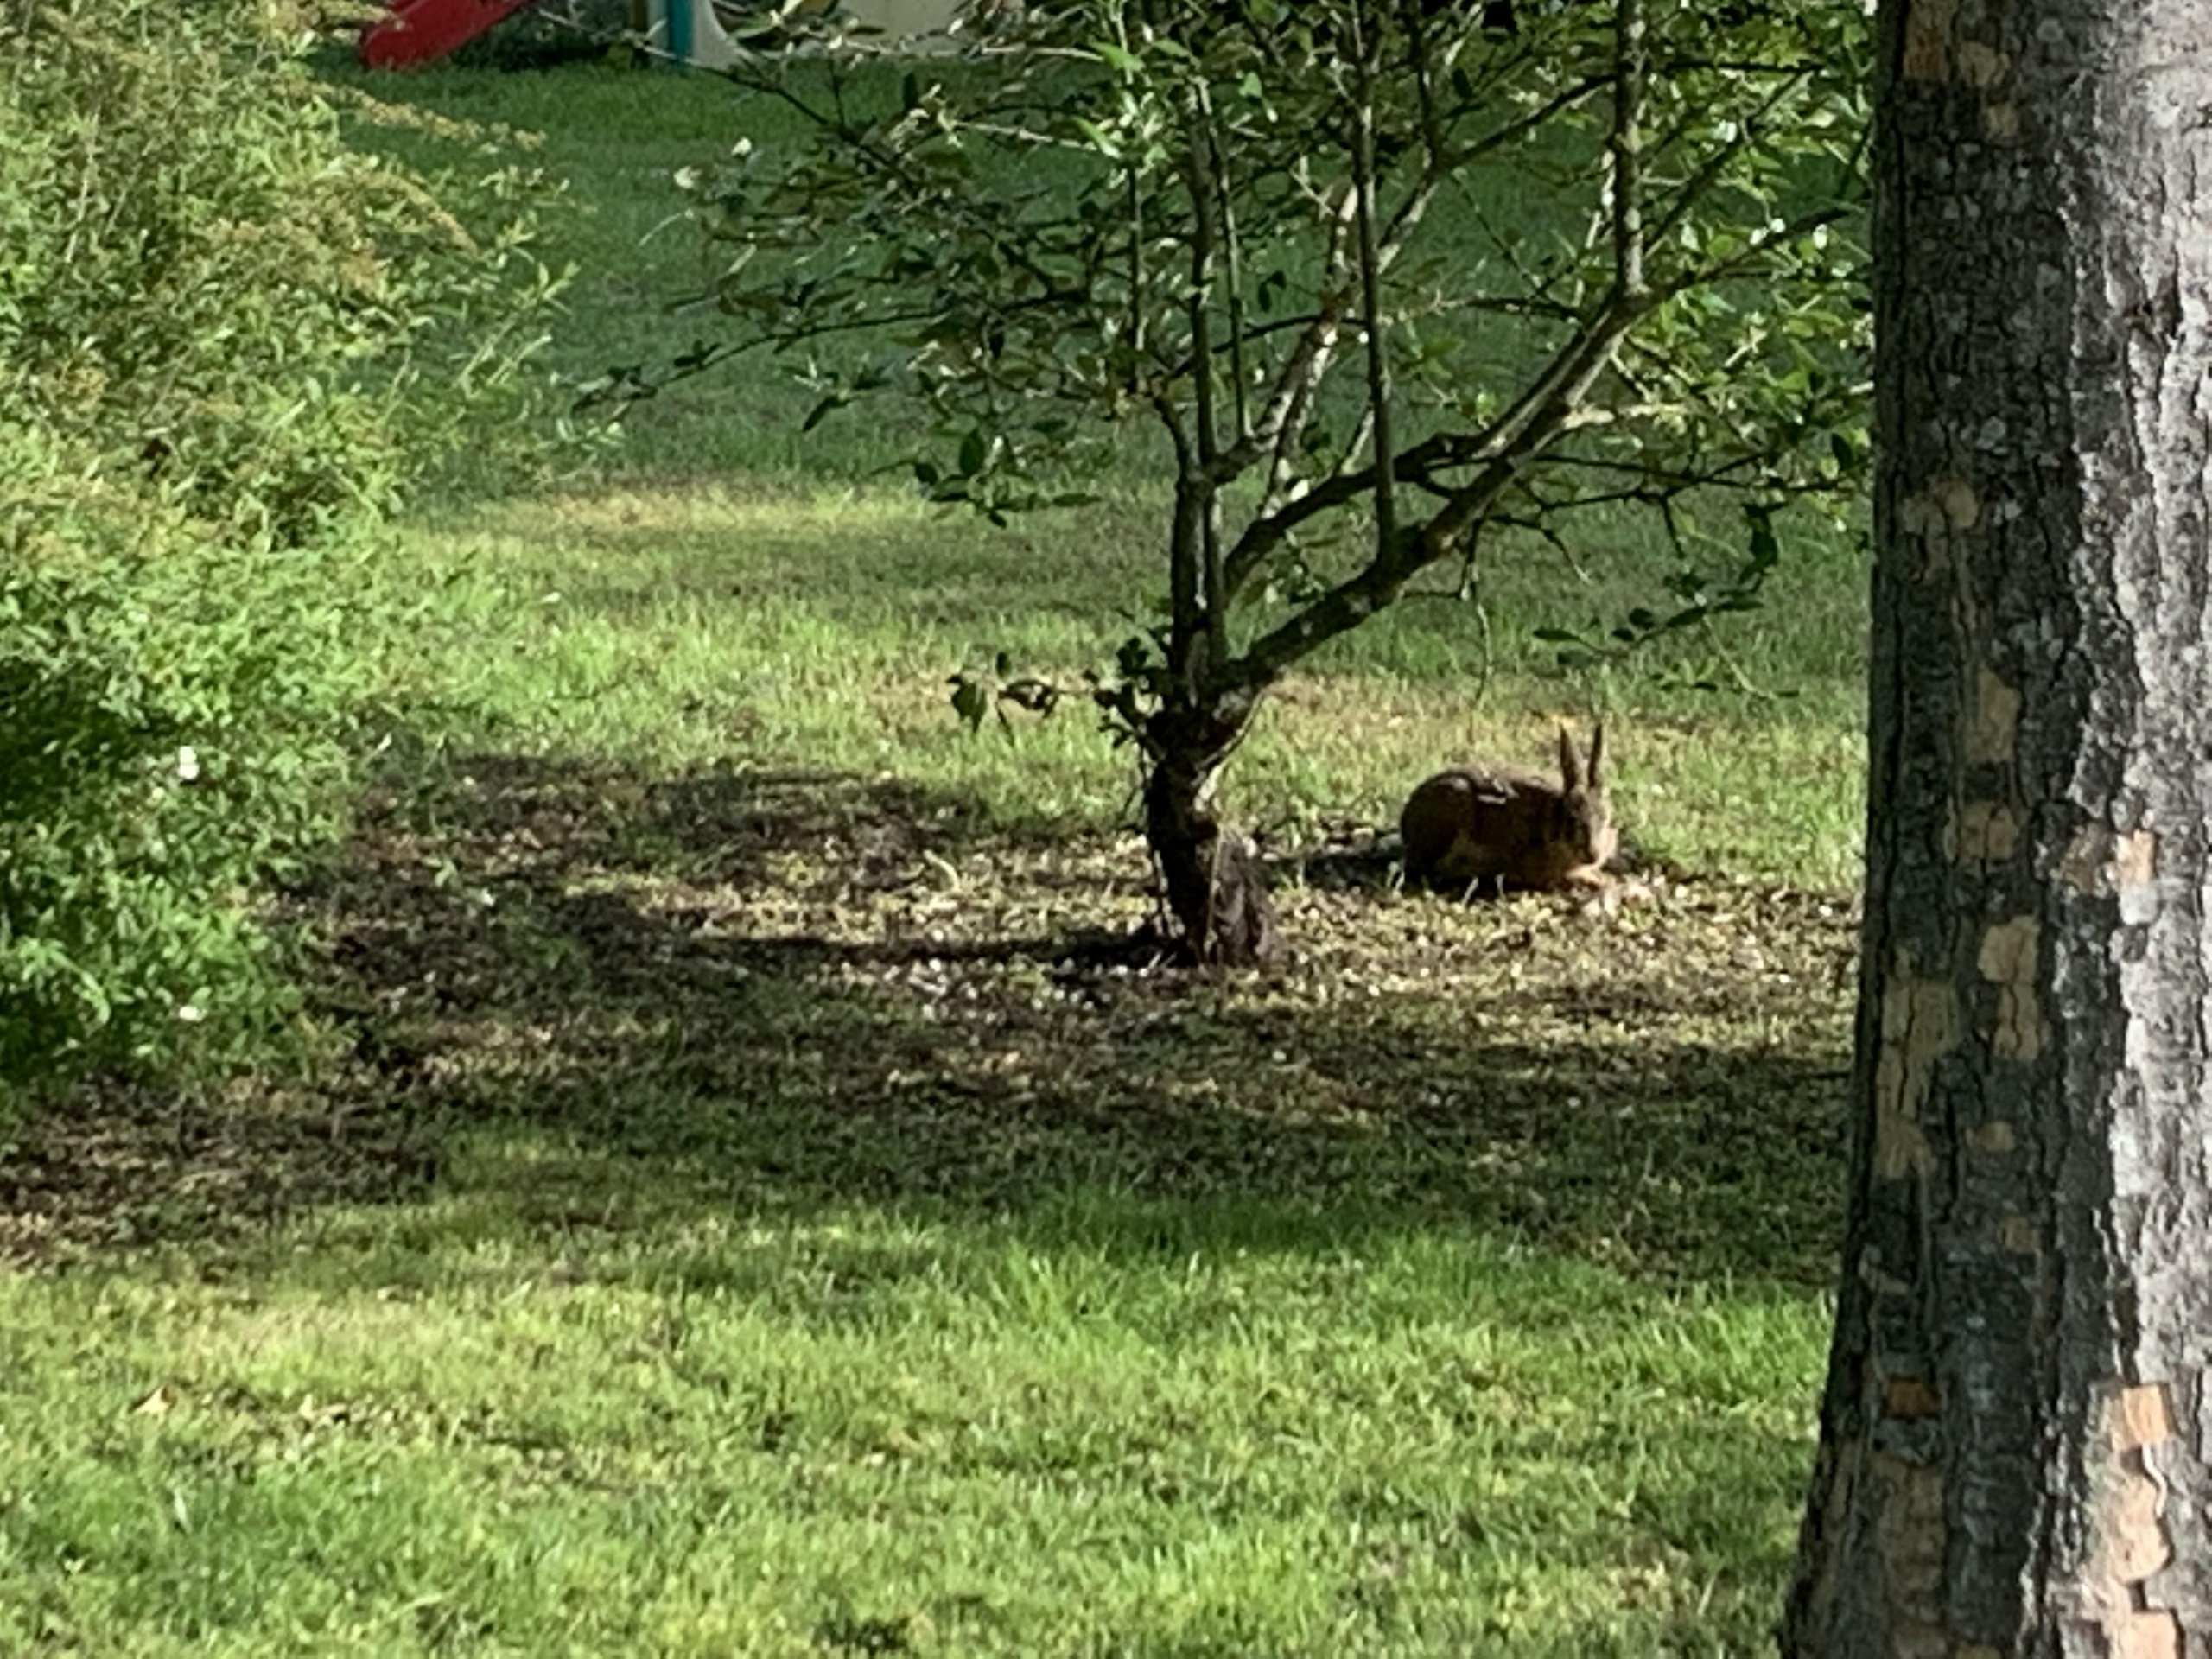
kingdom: Animalia
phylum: Chordata
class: Mammalia
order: Lagomorpha
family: Leporidae
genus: Lepus
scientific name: Lepus europaeus
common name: Hare
